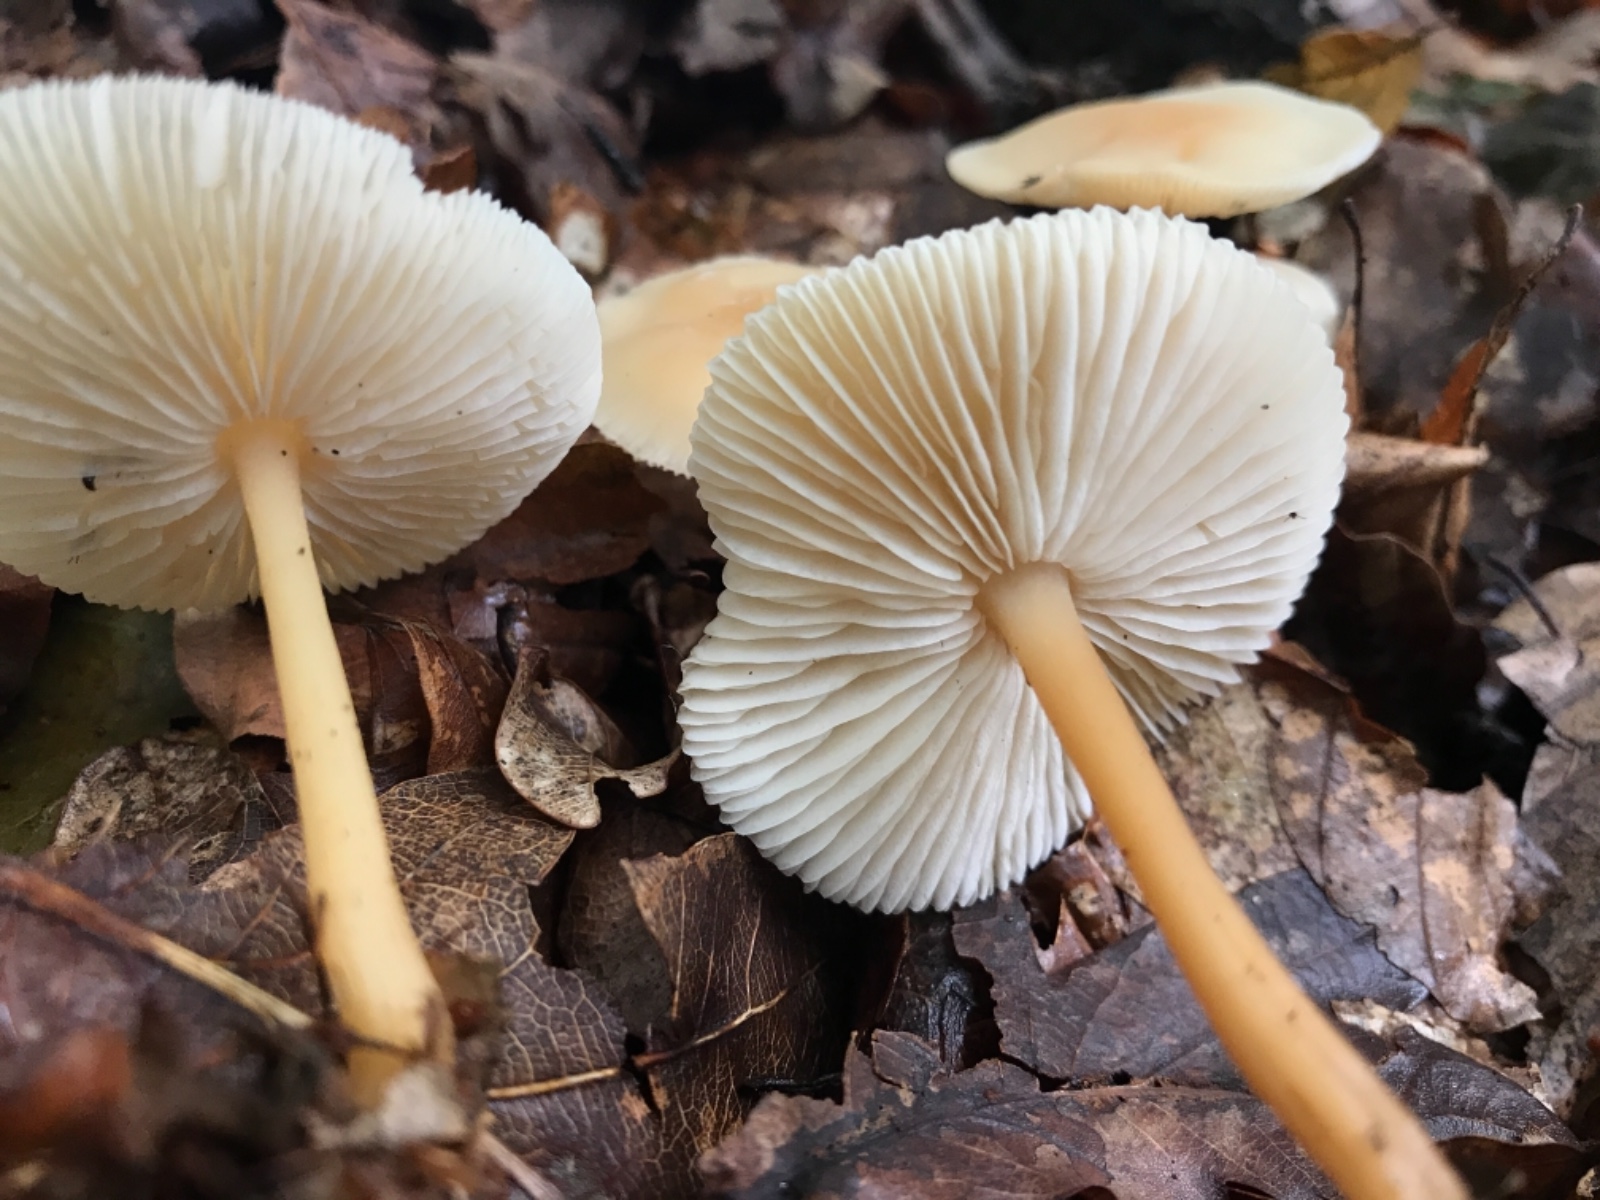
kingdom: Fungi
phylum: Basidiomycota
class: Agaricomycetes
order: Agaricales
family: Omphalotaceae
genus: Gymnopus
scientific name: Gymnopus
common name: fladhat
